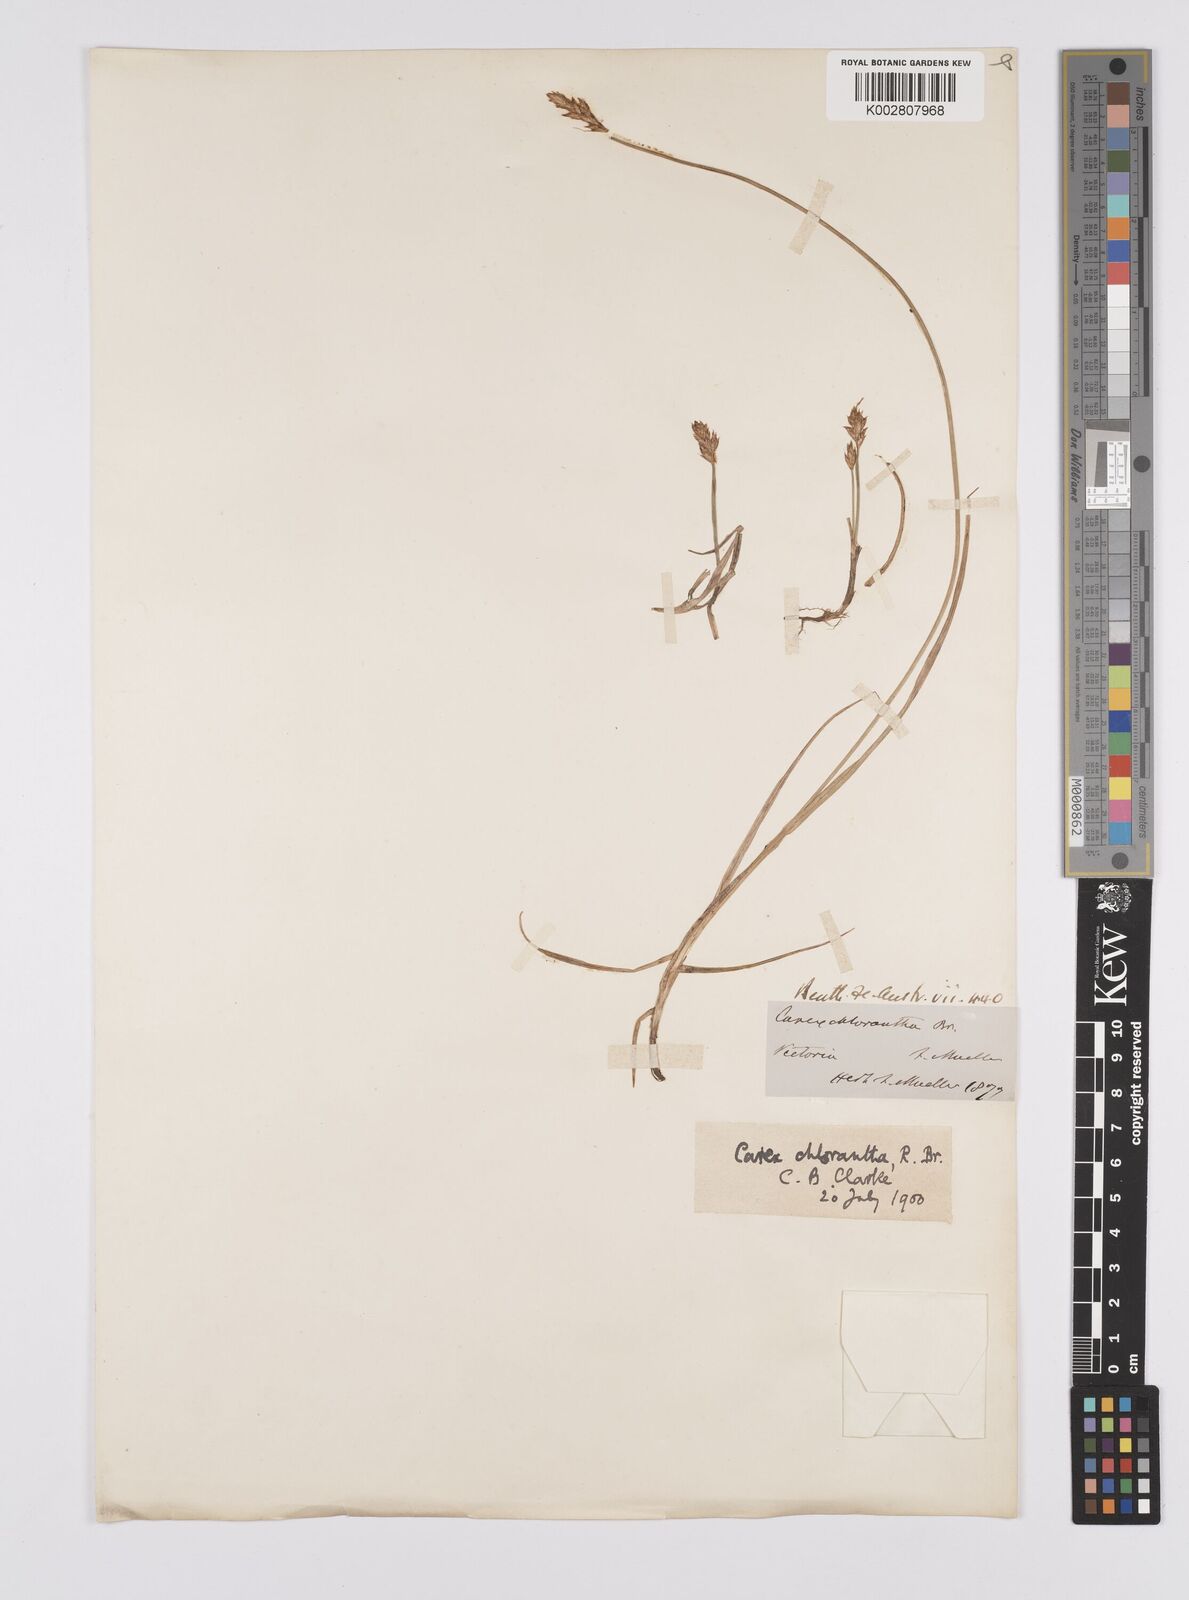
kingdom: Plantae
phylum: Tracheophyta
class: Liliopsida
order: Poales
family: Cyperaceae
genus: Carex
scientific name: Carex chlorantha
